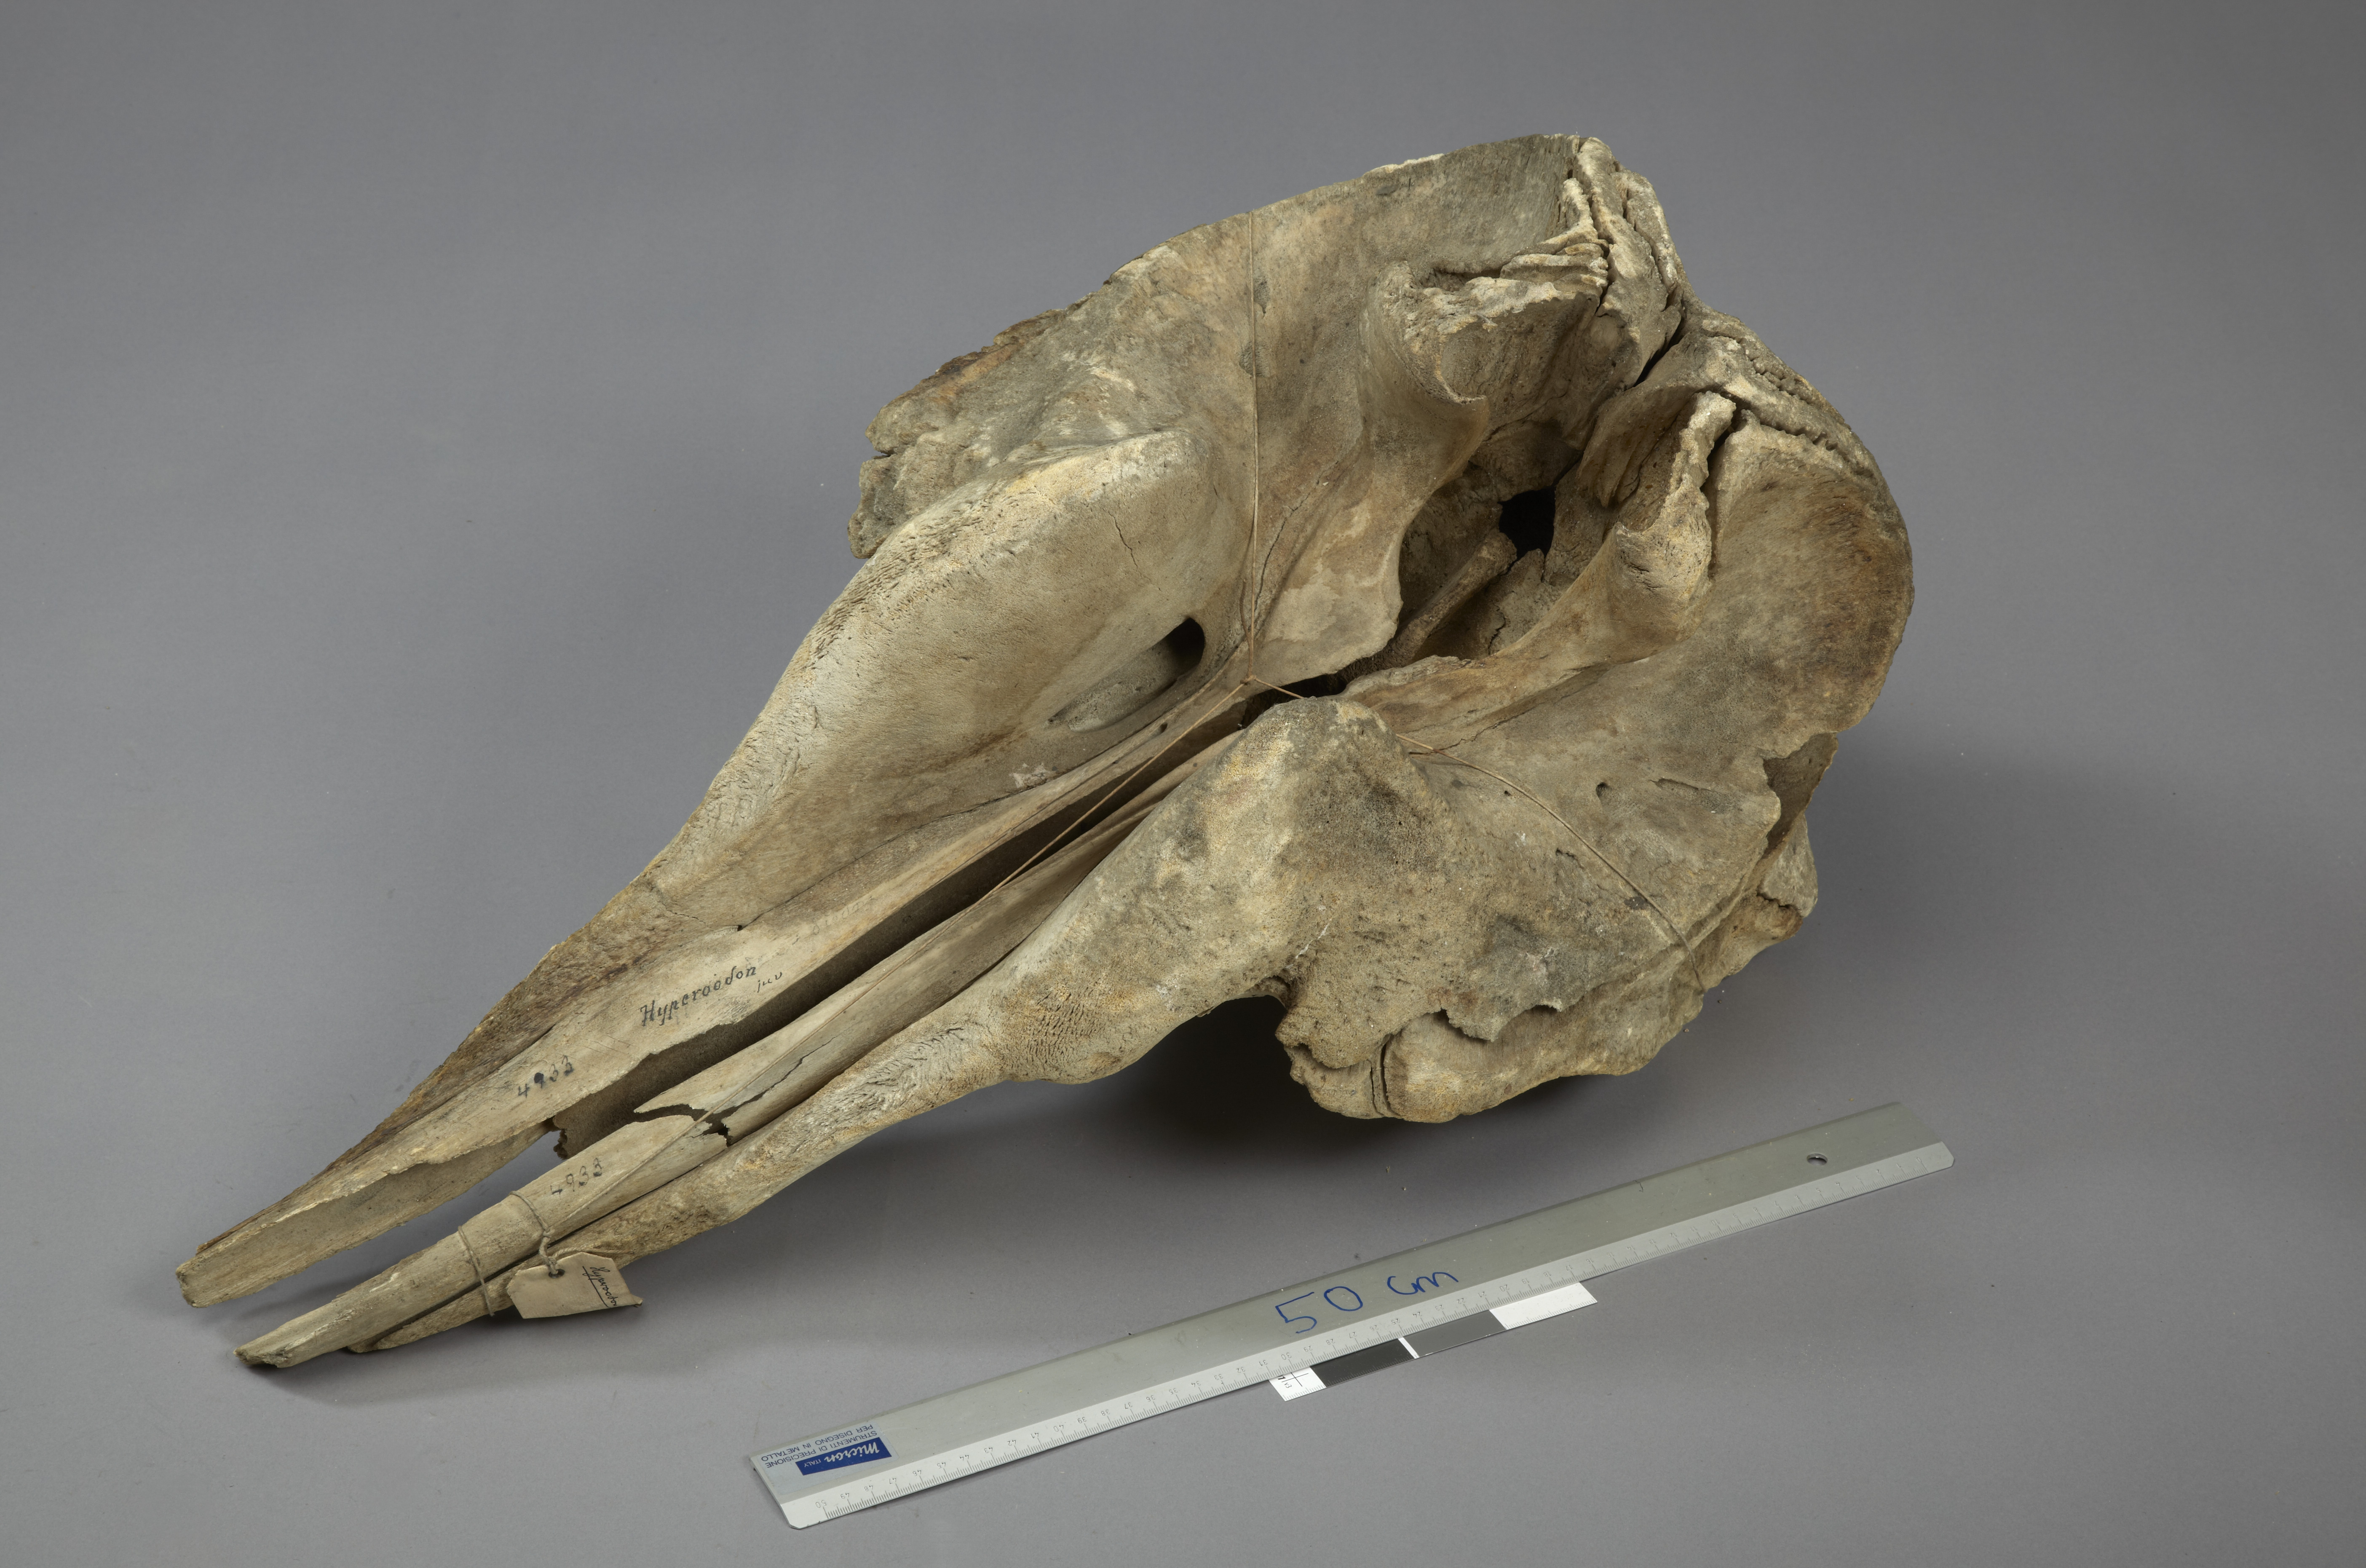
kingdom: Animalia
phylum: Chordata
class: Mammalia
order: Cetacea
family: Hyperoodontidae
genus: Hyperoodon
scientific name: Hyperoodon ampullatus
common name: Northern bottlenose whale
